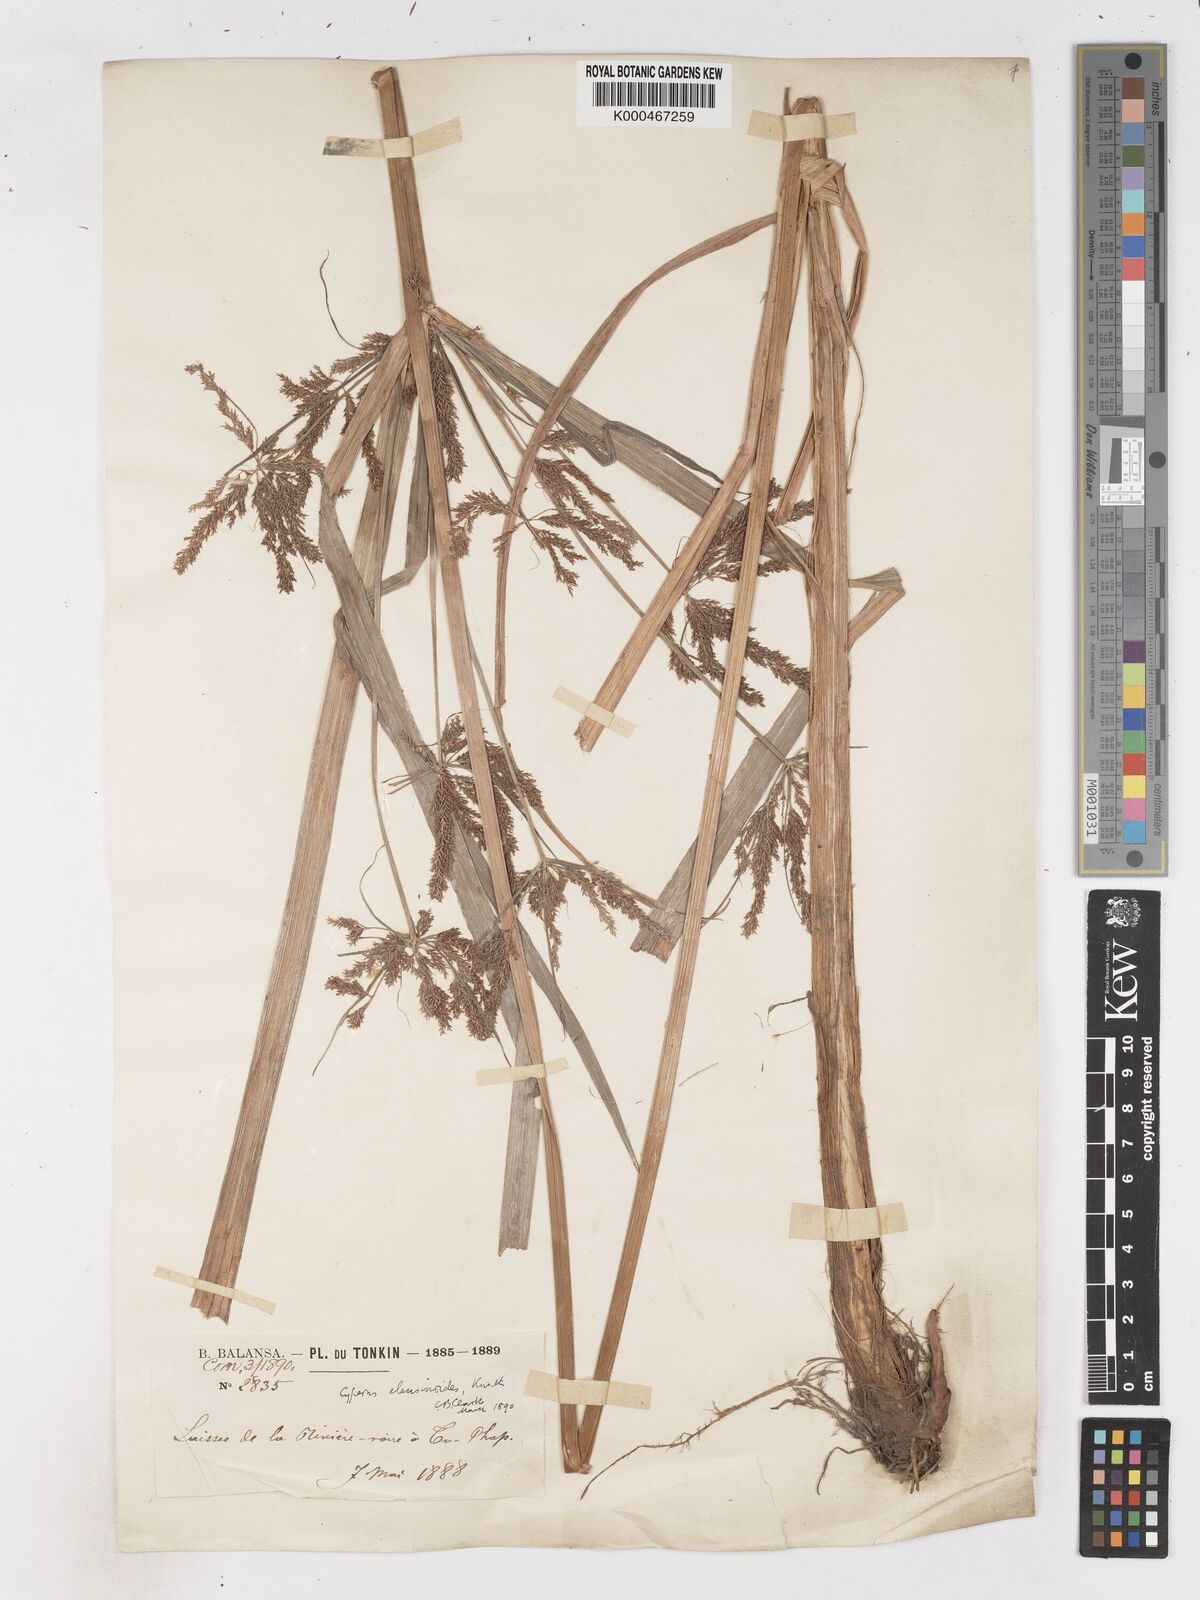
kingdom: Plantae
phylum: Tracheophyta
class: Liliopsida
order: Poales
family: Cyperaceae
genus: Cyperus
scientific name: Cyperus nutans
